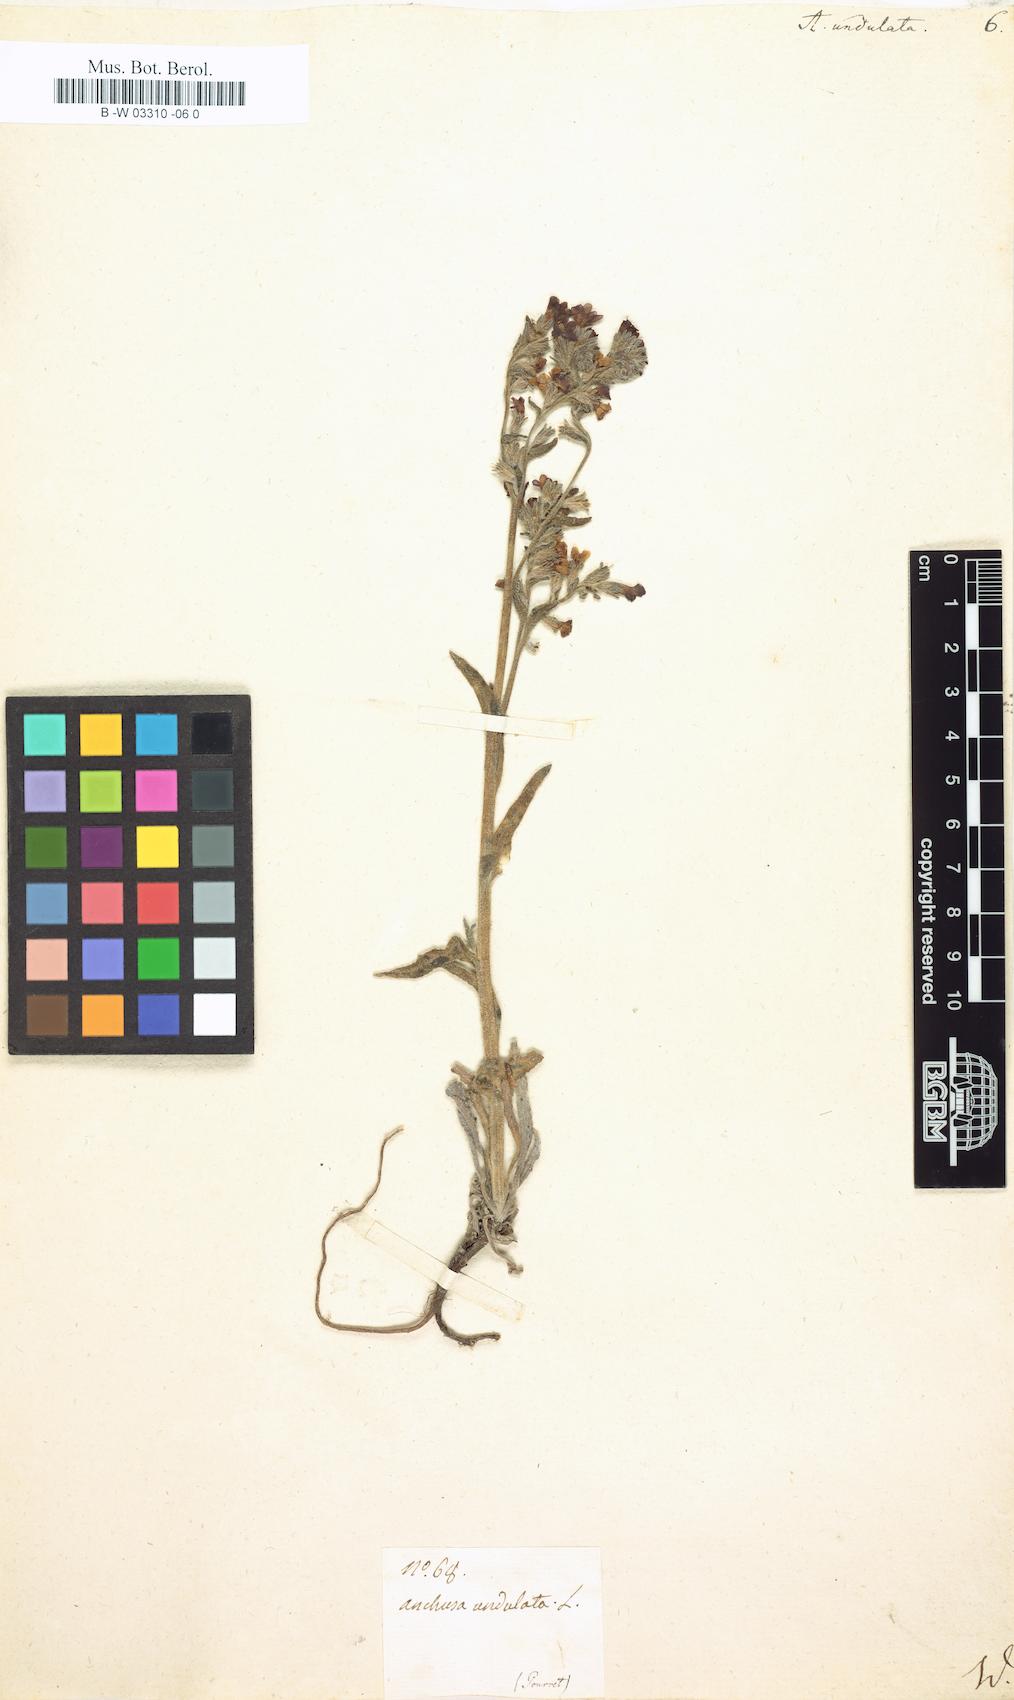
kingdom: Plantae
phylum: Tracheophyta
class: Magnoliopsida
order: Boraginales
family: Boraginaceae
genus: Anchusa
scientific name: Anchusa undulata
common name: Undulate alkanet
